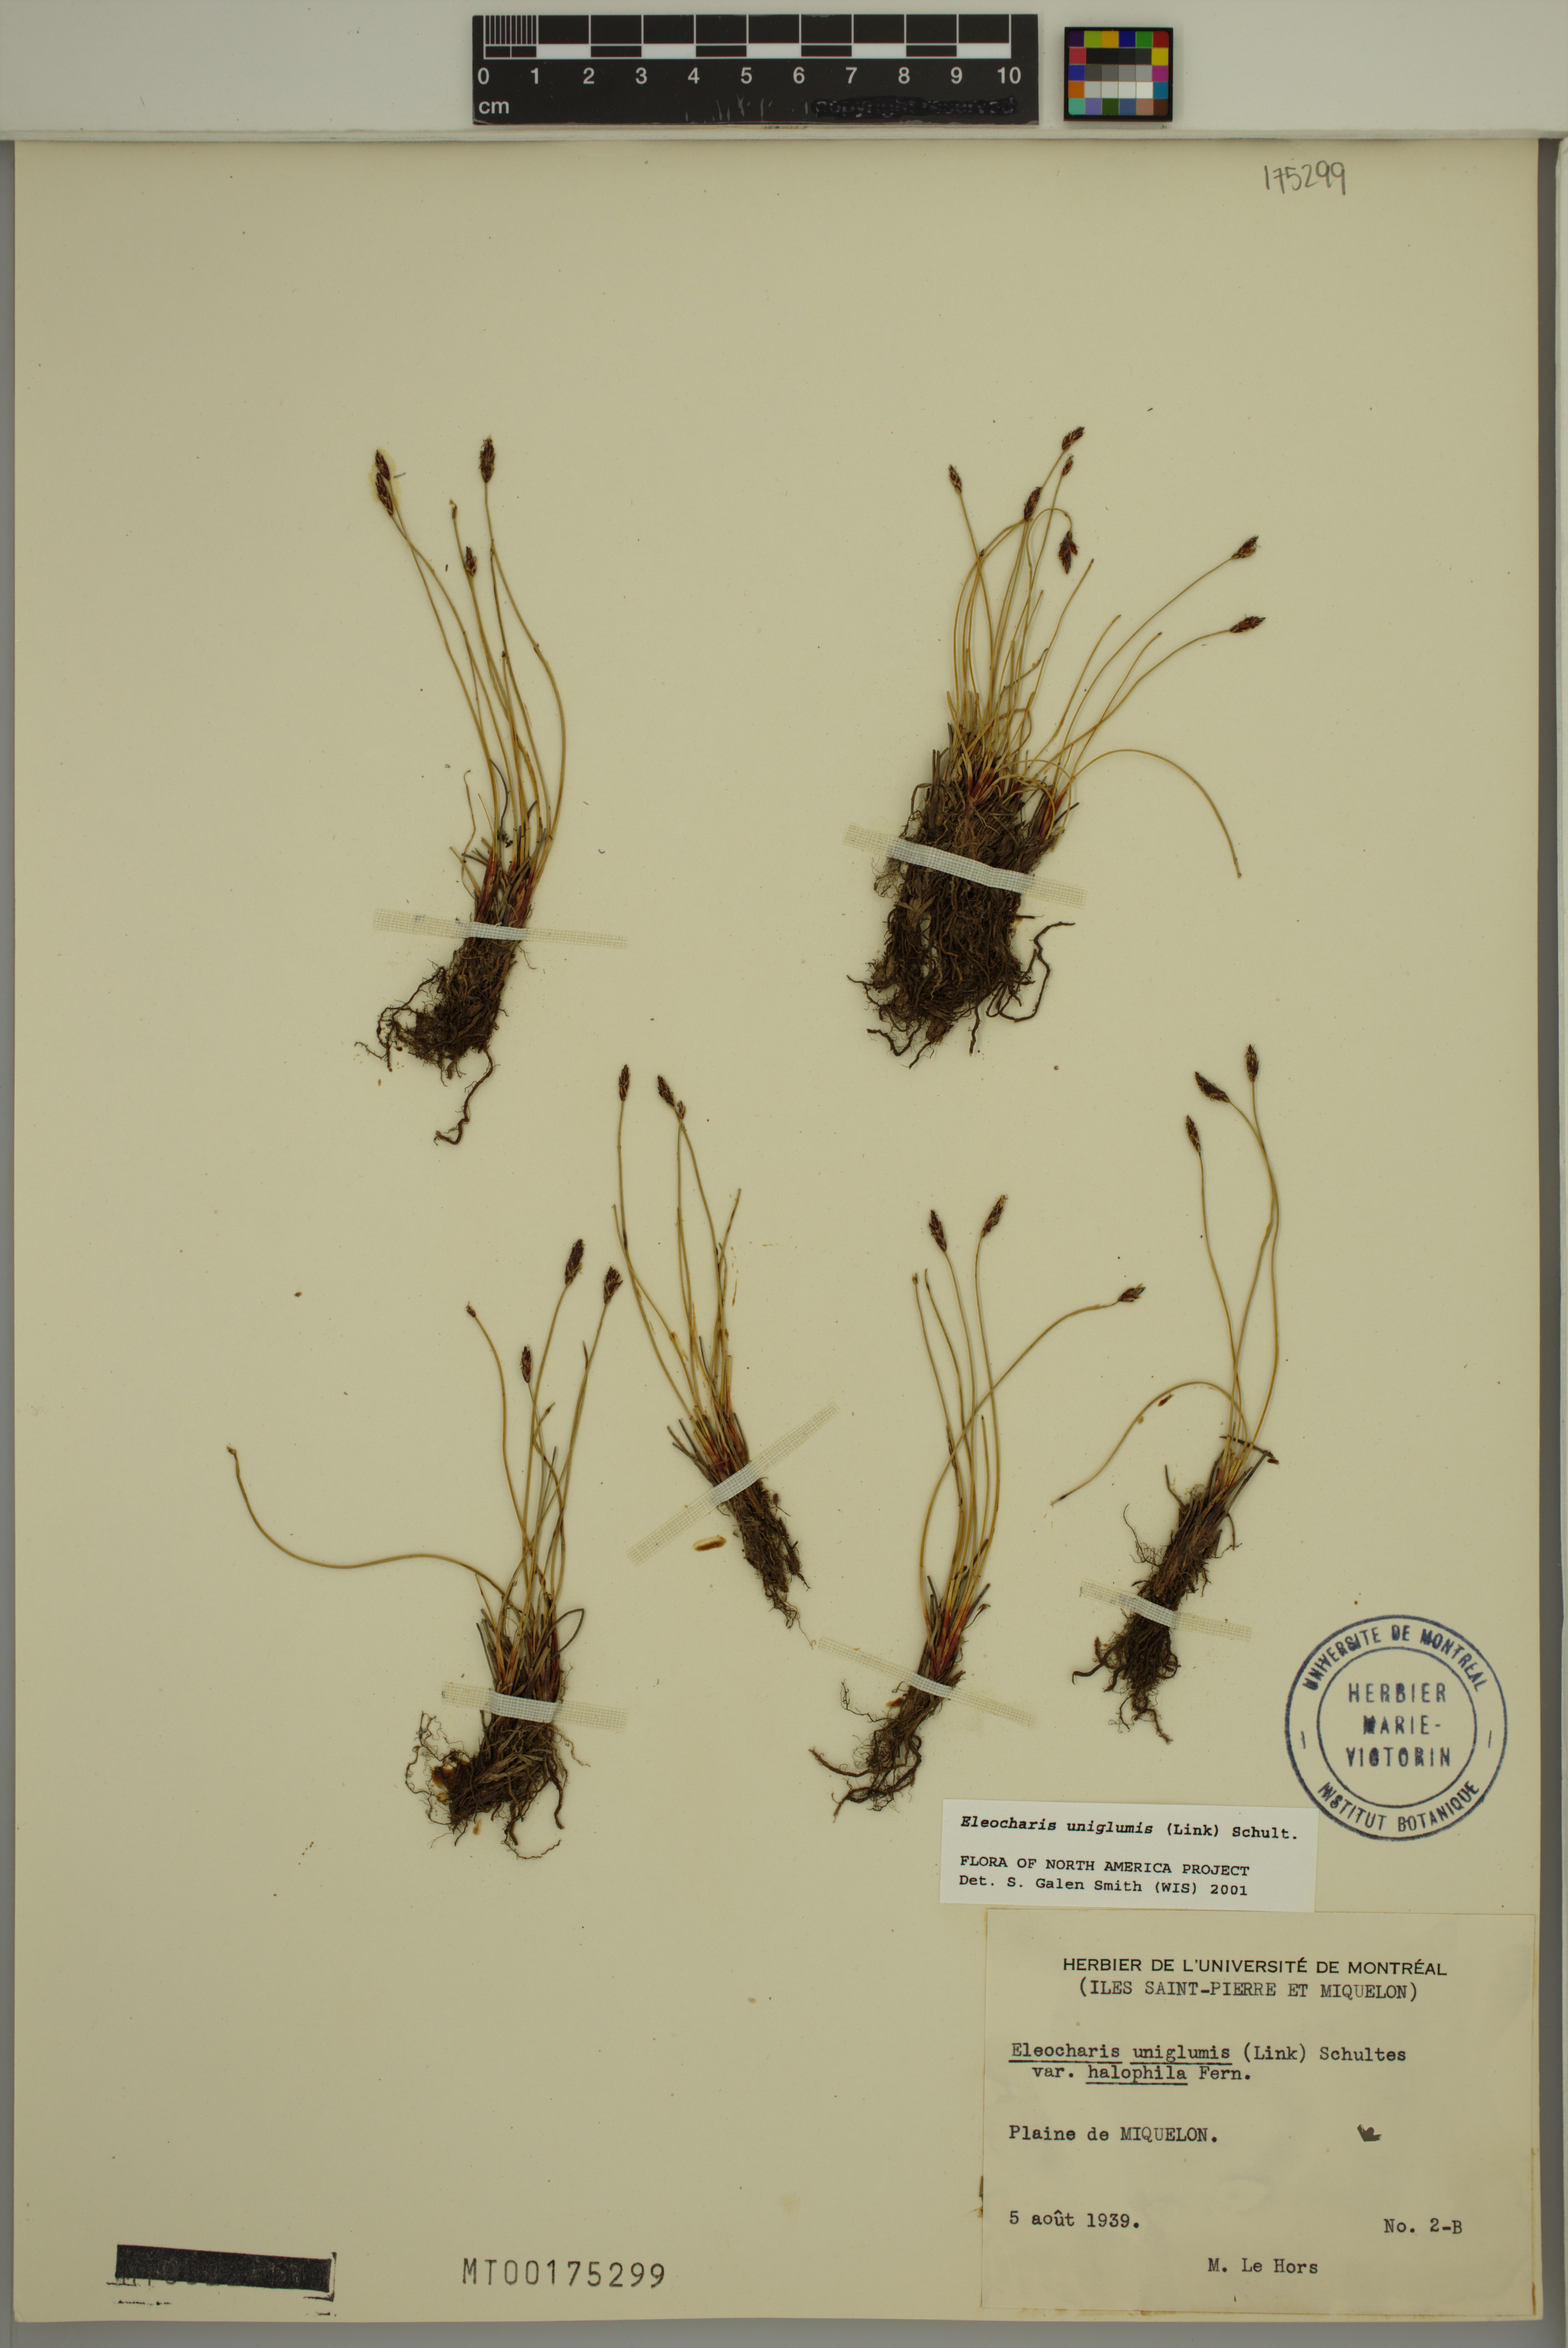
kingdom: Plantae
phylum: Tracheophyta
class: Liliopsida
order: Poales
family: Cyperaceae
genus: Eleocharis
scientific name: Eleocharis uniglumis
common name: Slender spike-rush
